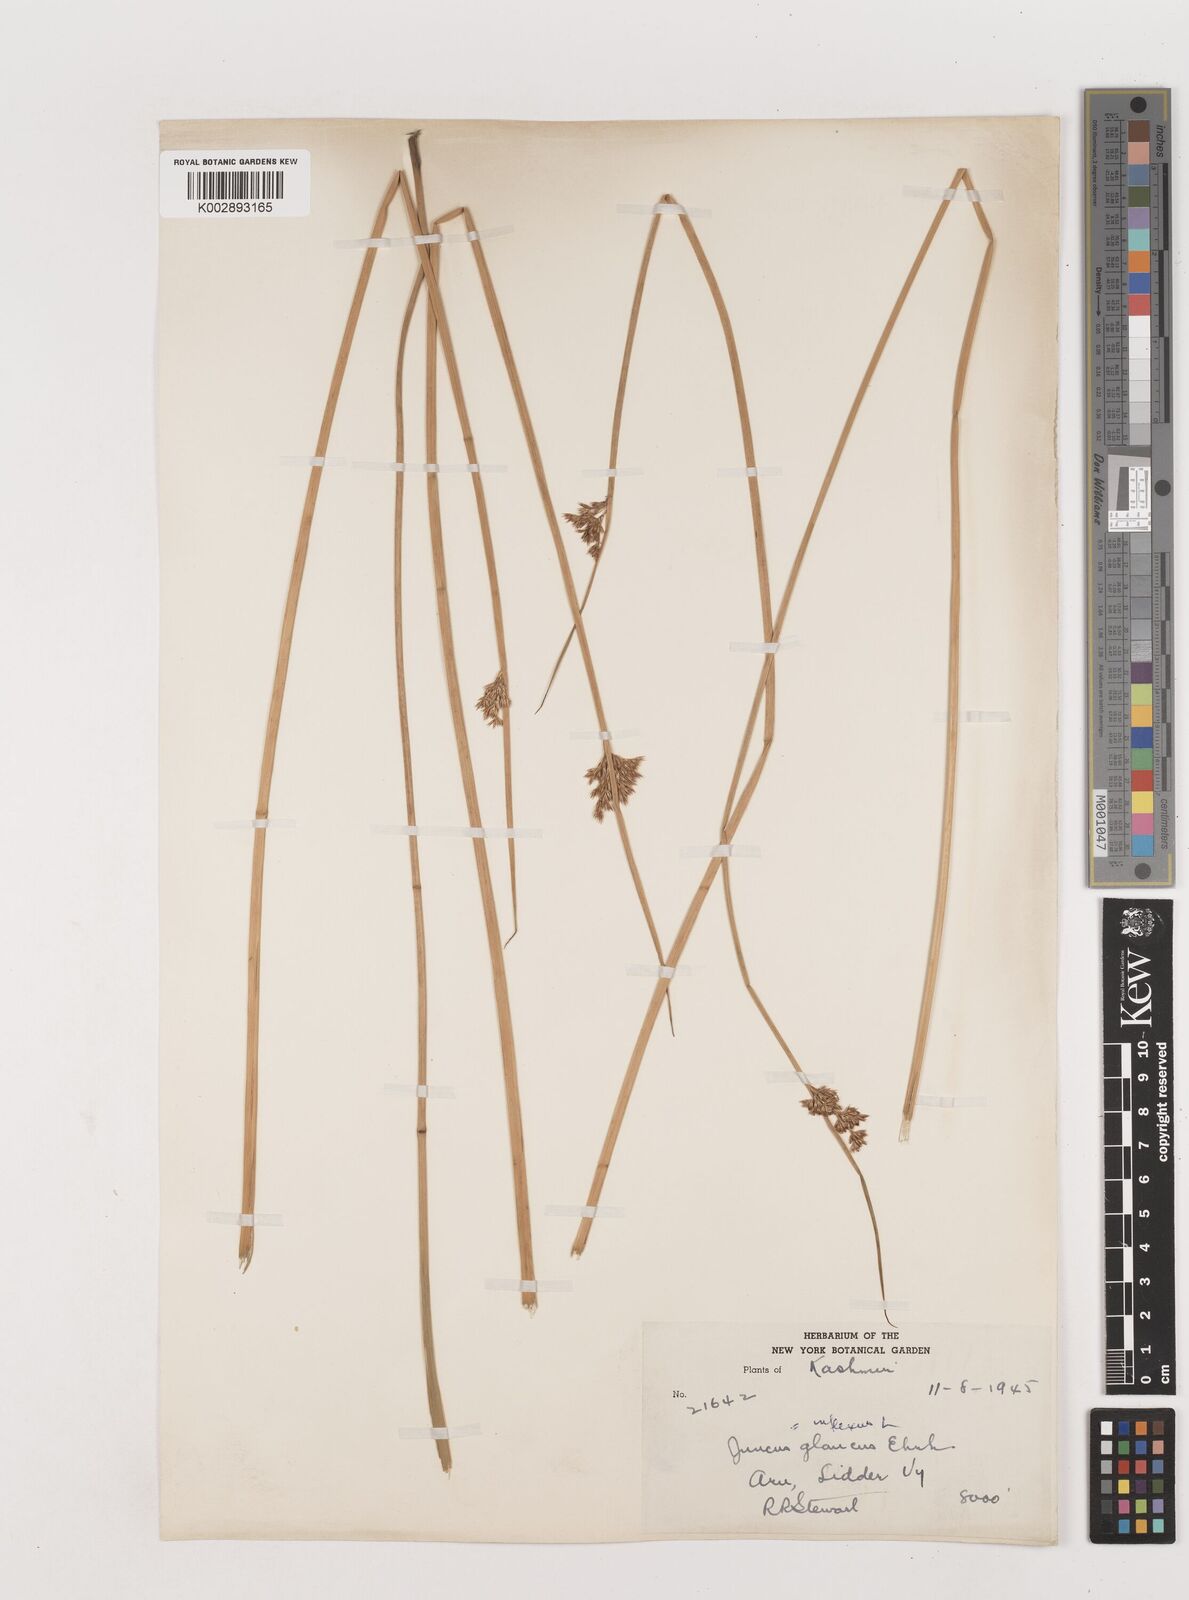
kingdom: Plantae
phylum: Tracheophyta
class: Liliopsida
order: Poales
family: Juncaceae
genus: Juncus
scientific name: Juncus inflexus
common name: Hard rush
